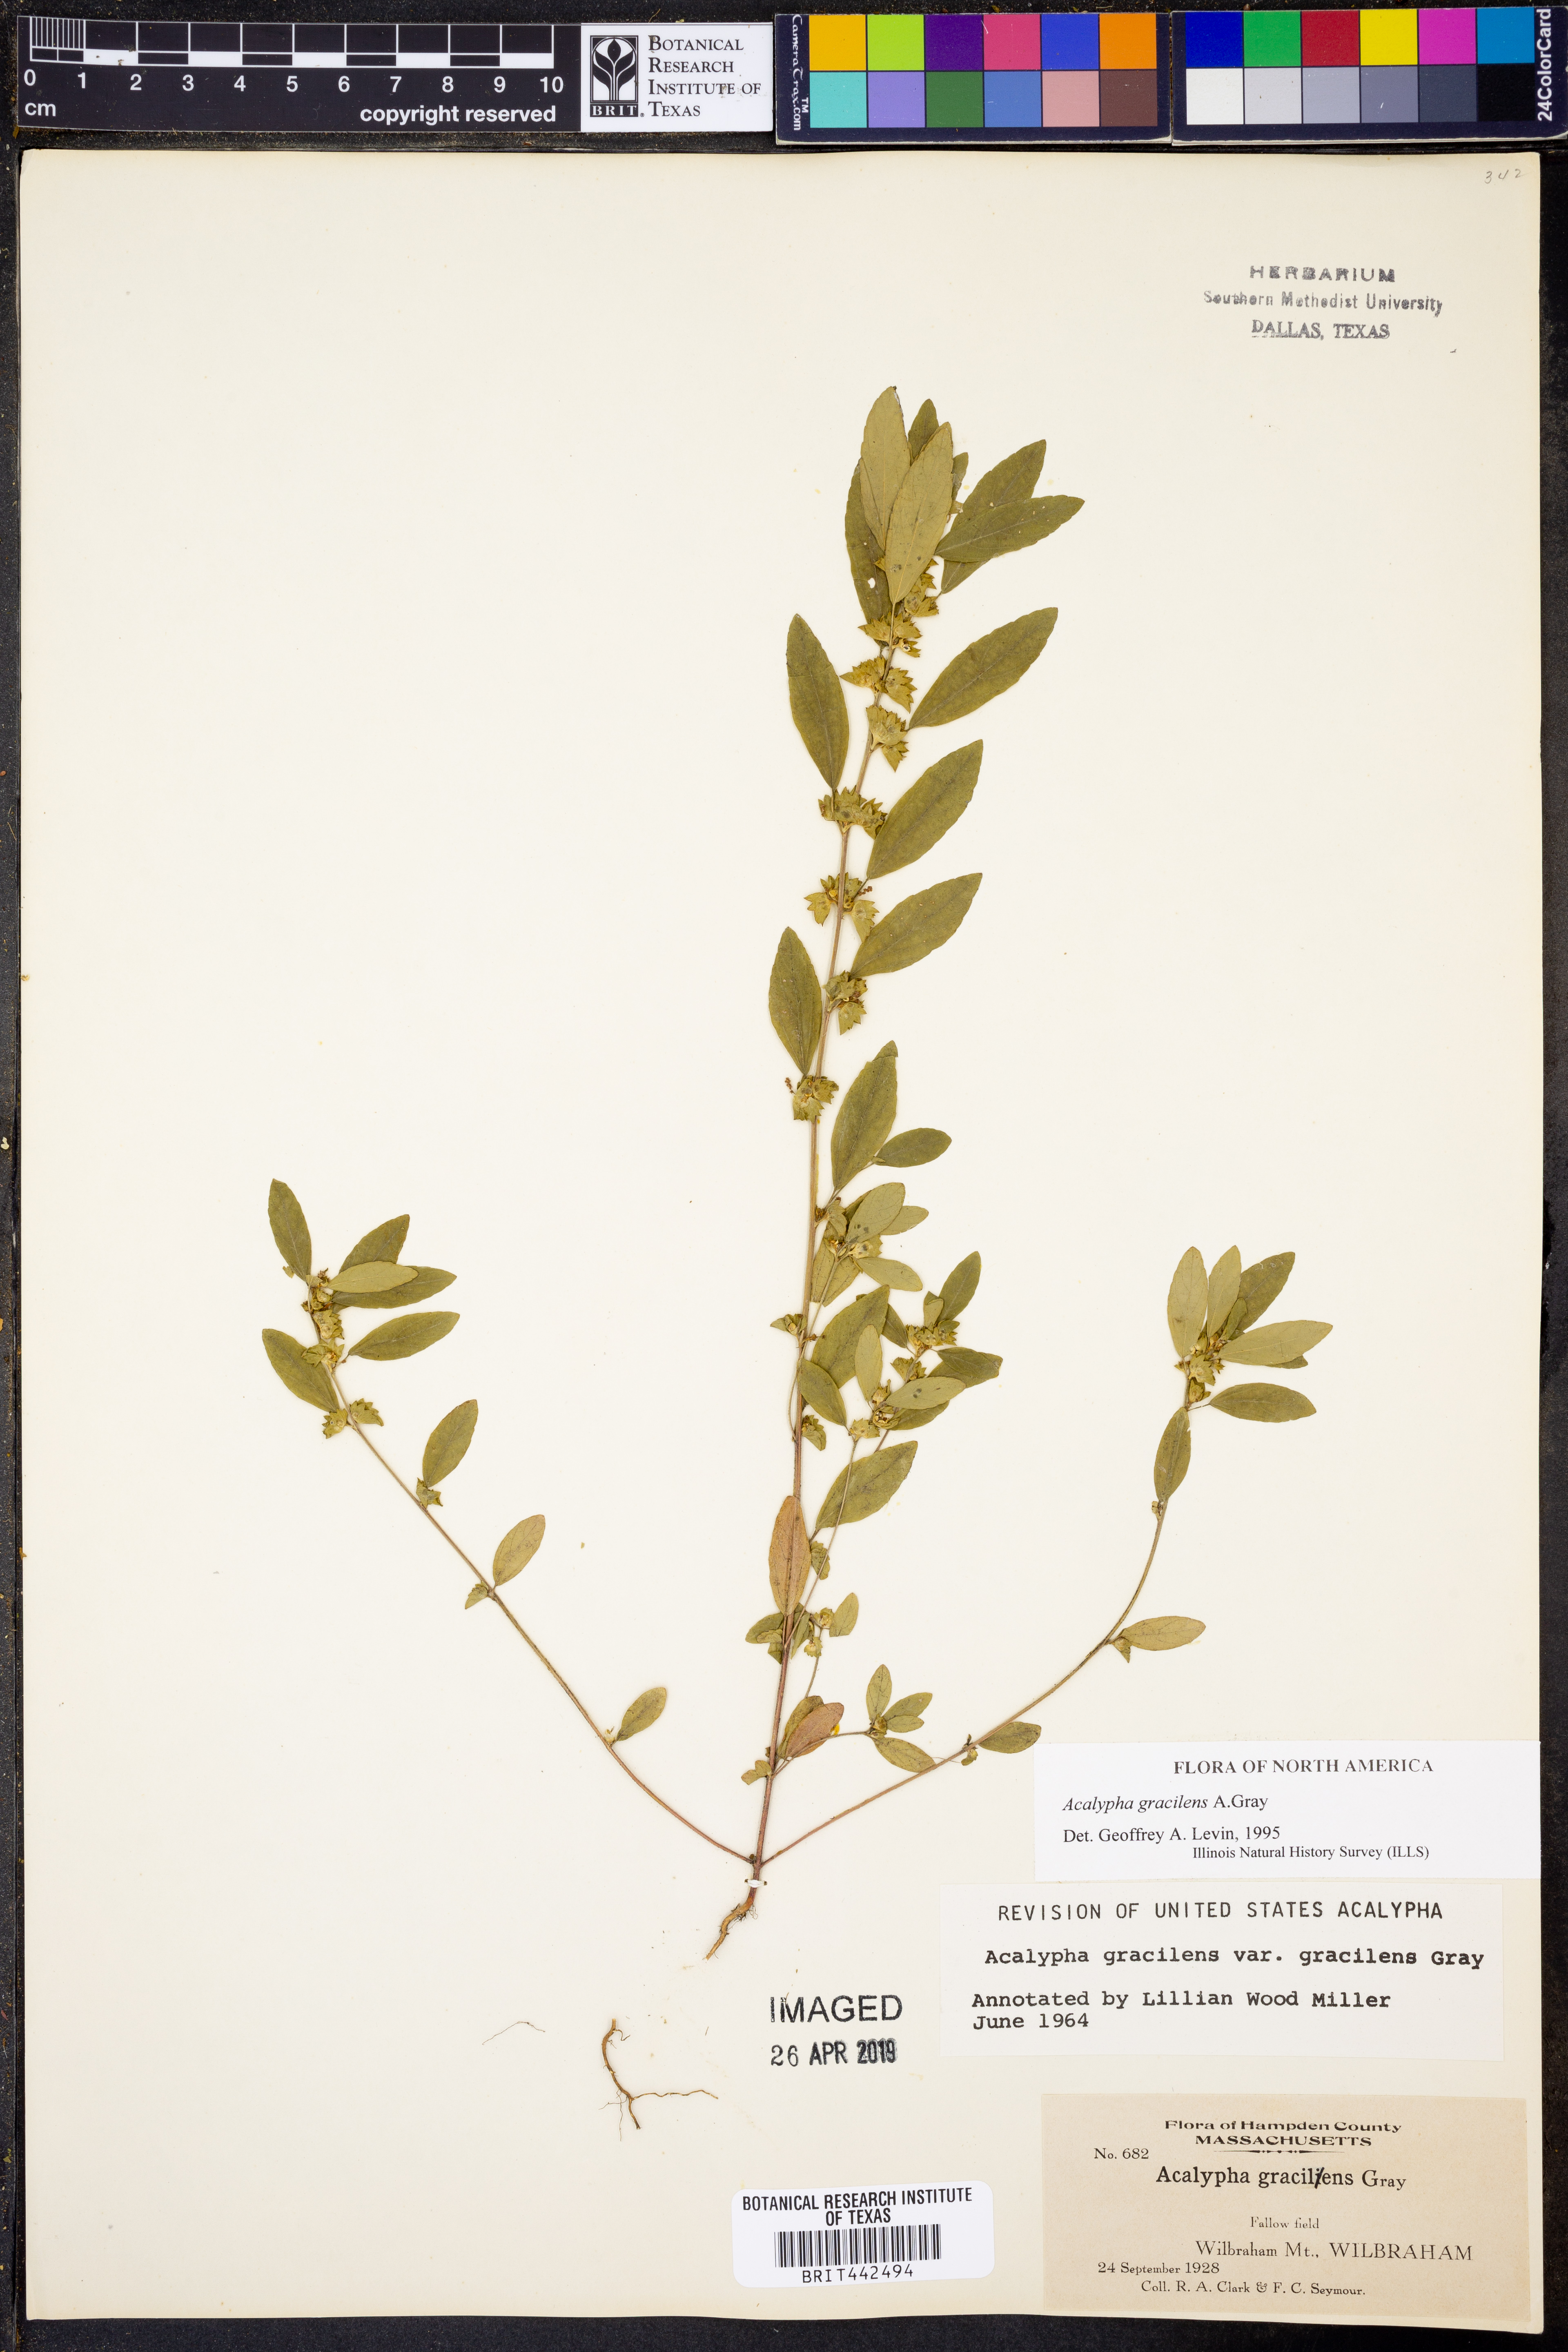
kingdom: Plantae
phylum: Tracheophyta
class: Magnoliopsida
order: Malpighiales
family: Euphorbiaceae
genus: Acalypha
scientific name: Acalypha gracilens
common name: Slender three-seeded mercury
